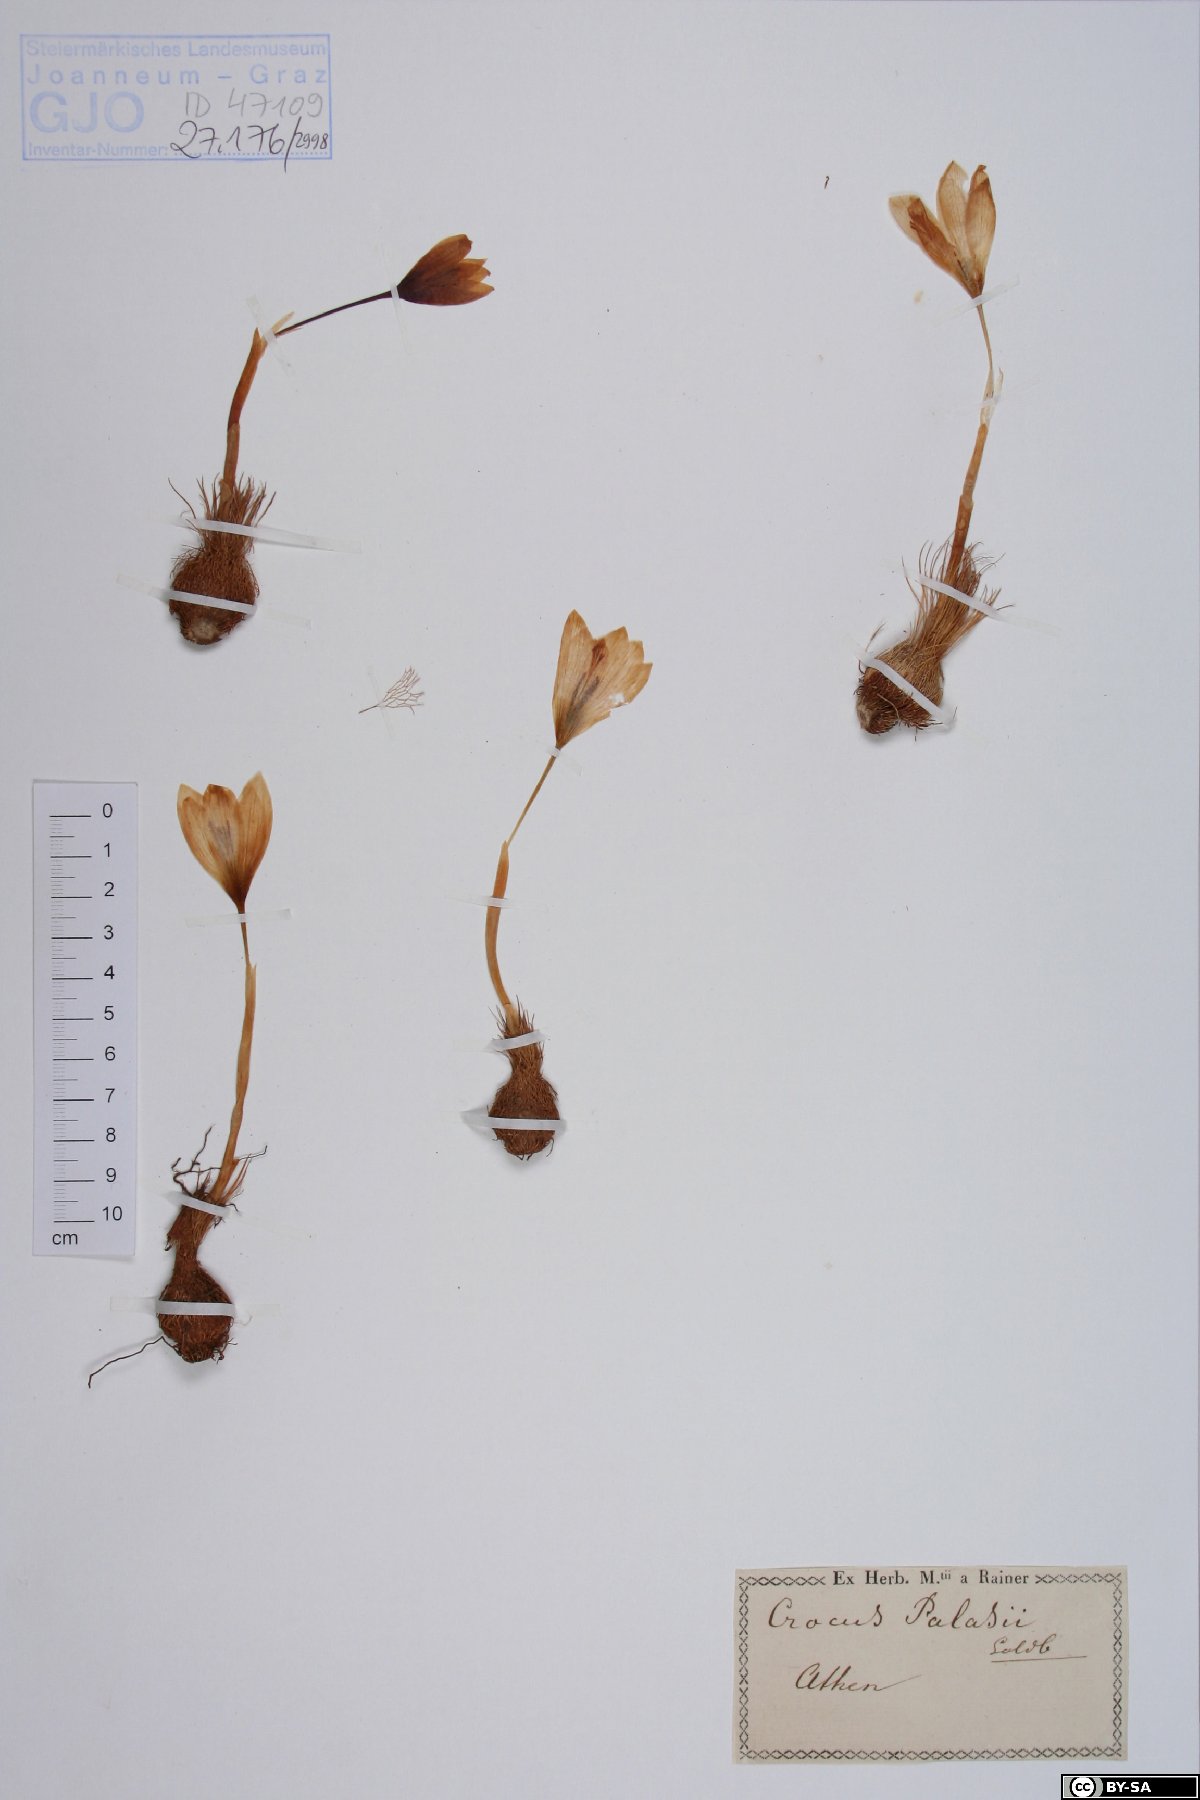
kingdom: Plantae
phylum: Tracheophyta
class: Liliopsida
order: Asparagales
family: Iridaceae
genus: Crocus
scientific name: Crocus pallasii
